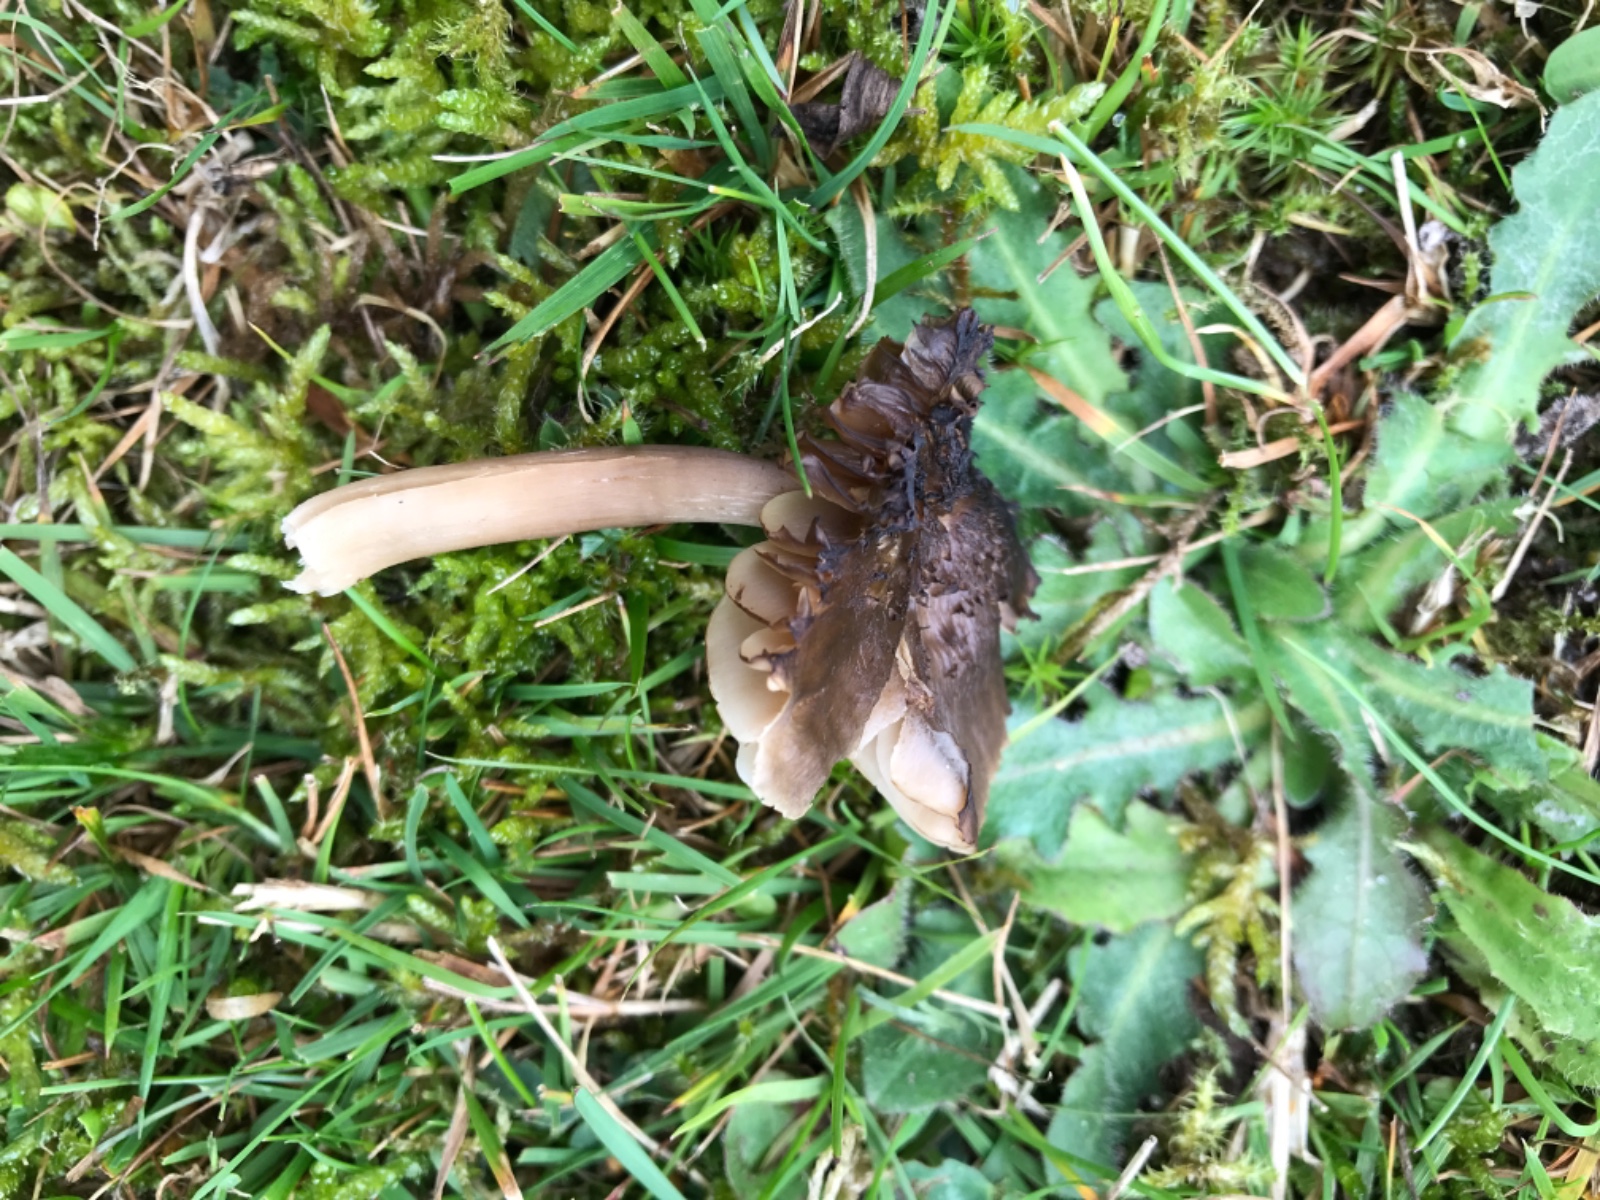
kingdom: Fungi
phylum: Basidiomycota
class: Agaricomycetes
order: Agaricales
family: Hygrophoraceae
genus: Neohygrocybe
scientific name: Neohygrocybe nitrata
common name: stinkende vokshat
